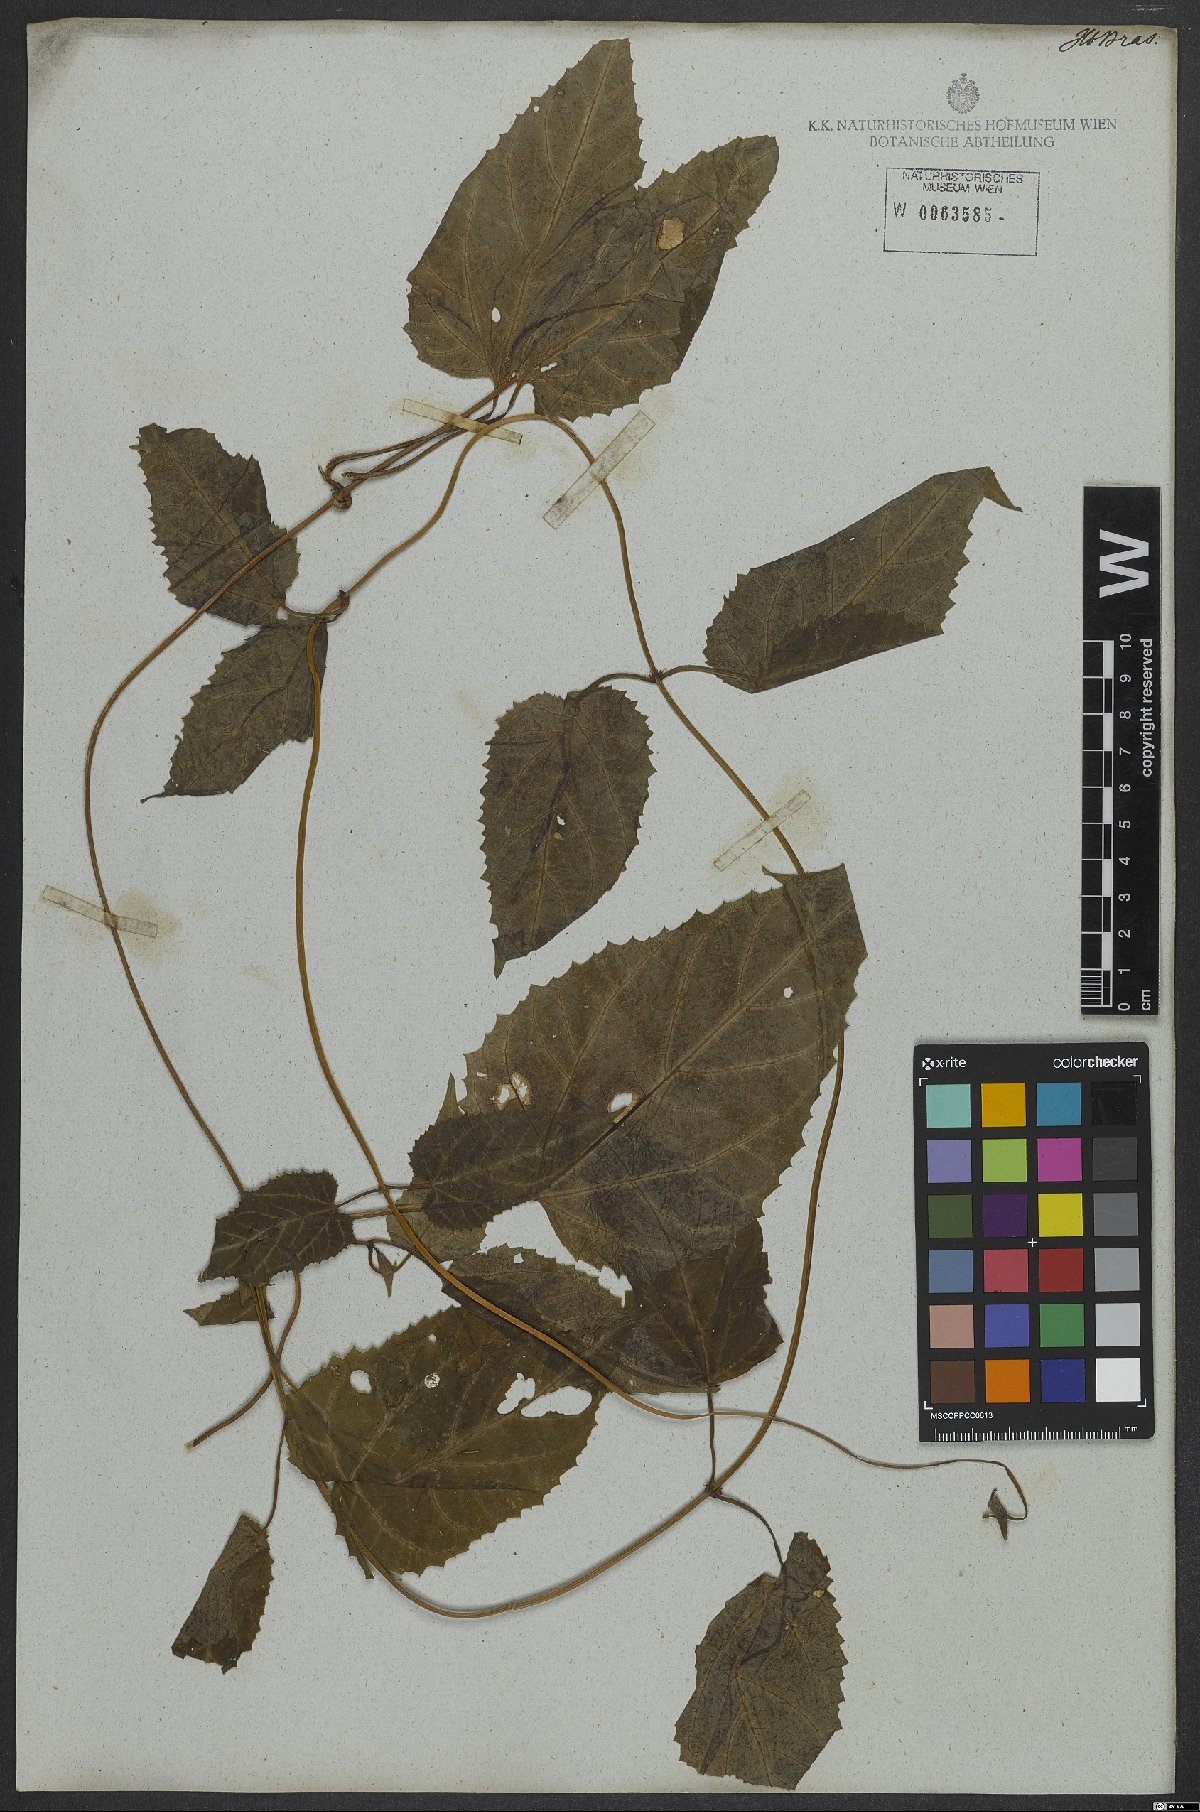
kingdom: Plantae
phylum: Tracheophyta
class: Magnoliopsida
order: Asterales
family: Asteraceae
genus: Mikania
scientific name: Mikania
